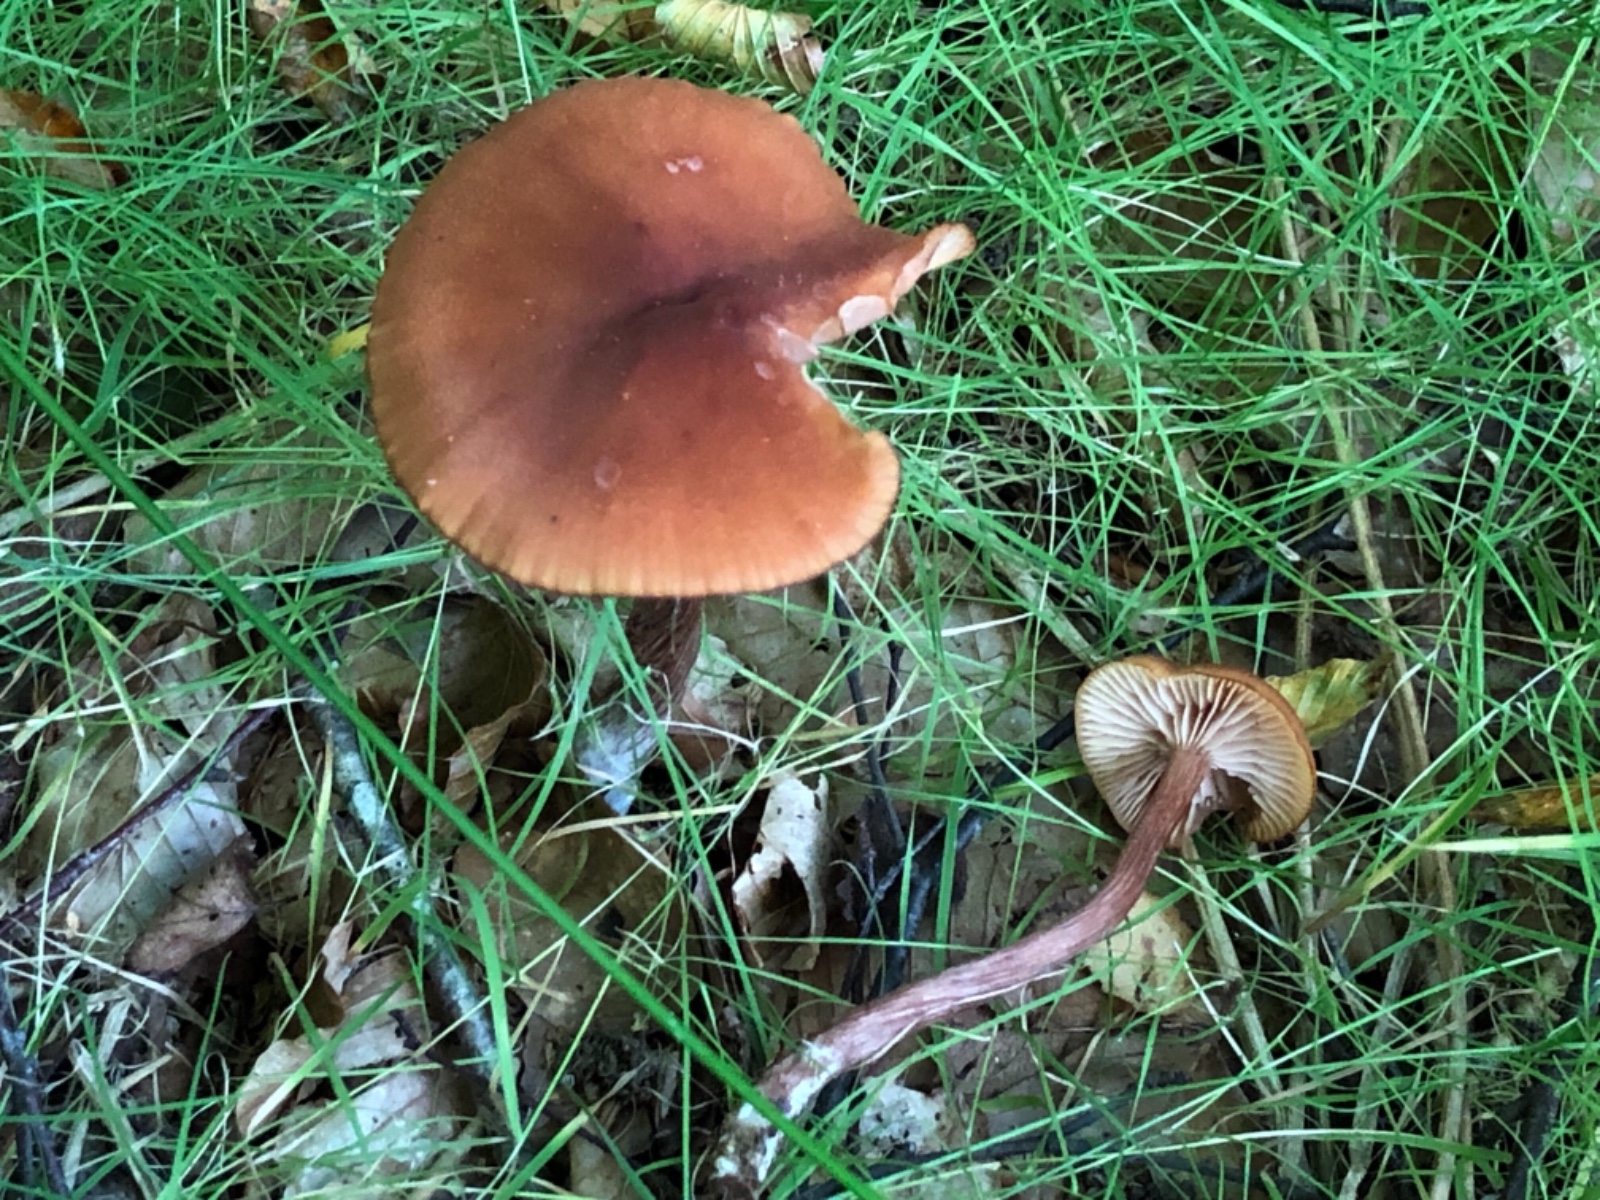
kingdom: Fungi
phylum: Basidiomycota
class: Agaricomycetes
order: Agaricales
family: Hydnangiaceae
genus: Laccaria
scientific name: Laccaria proxima
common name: stor ametysthat
